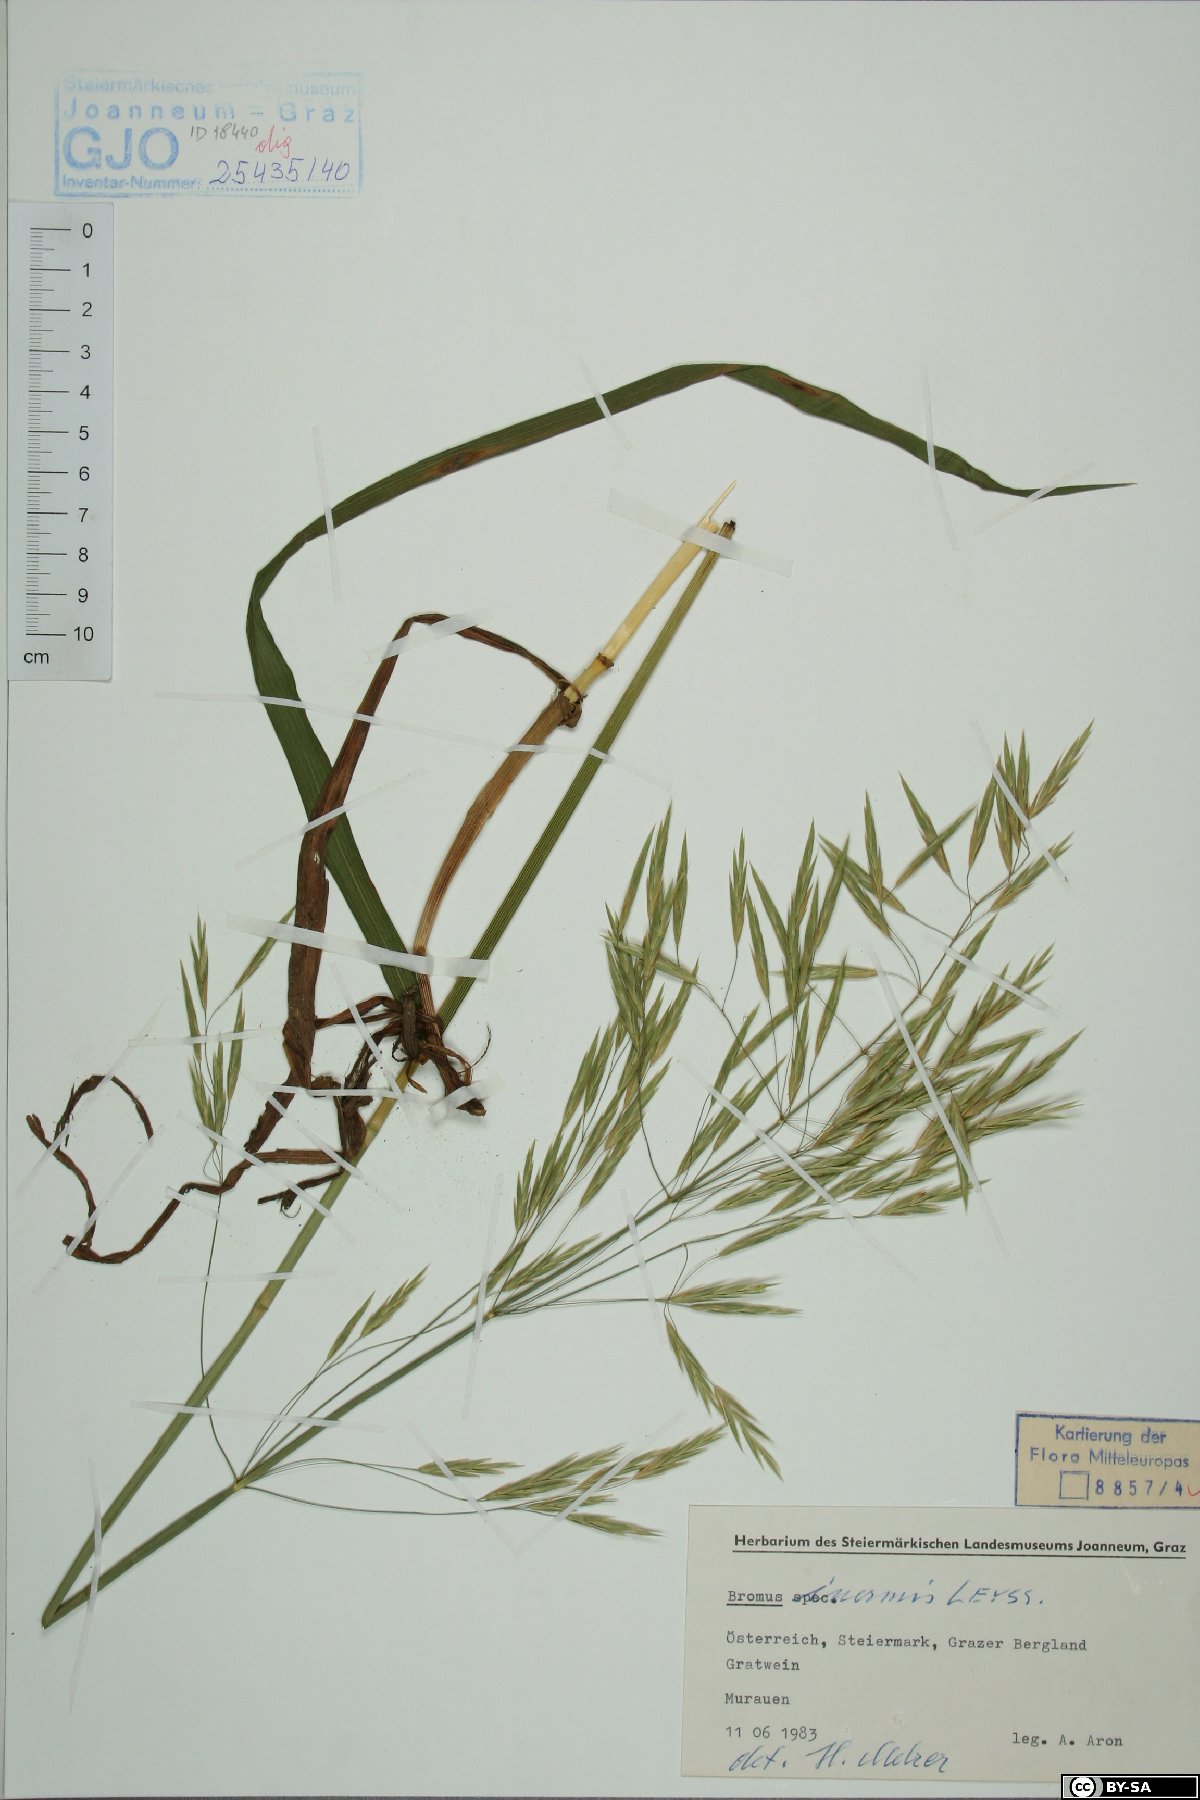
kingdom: Plantae
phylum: Tracheophyta
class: Liliopsida
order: Poales
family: Poaceae
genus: Bromus
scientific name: Bromus inermis
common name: Smooth brome
